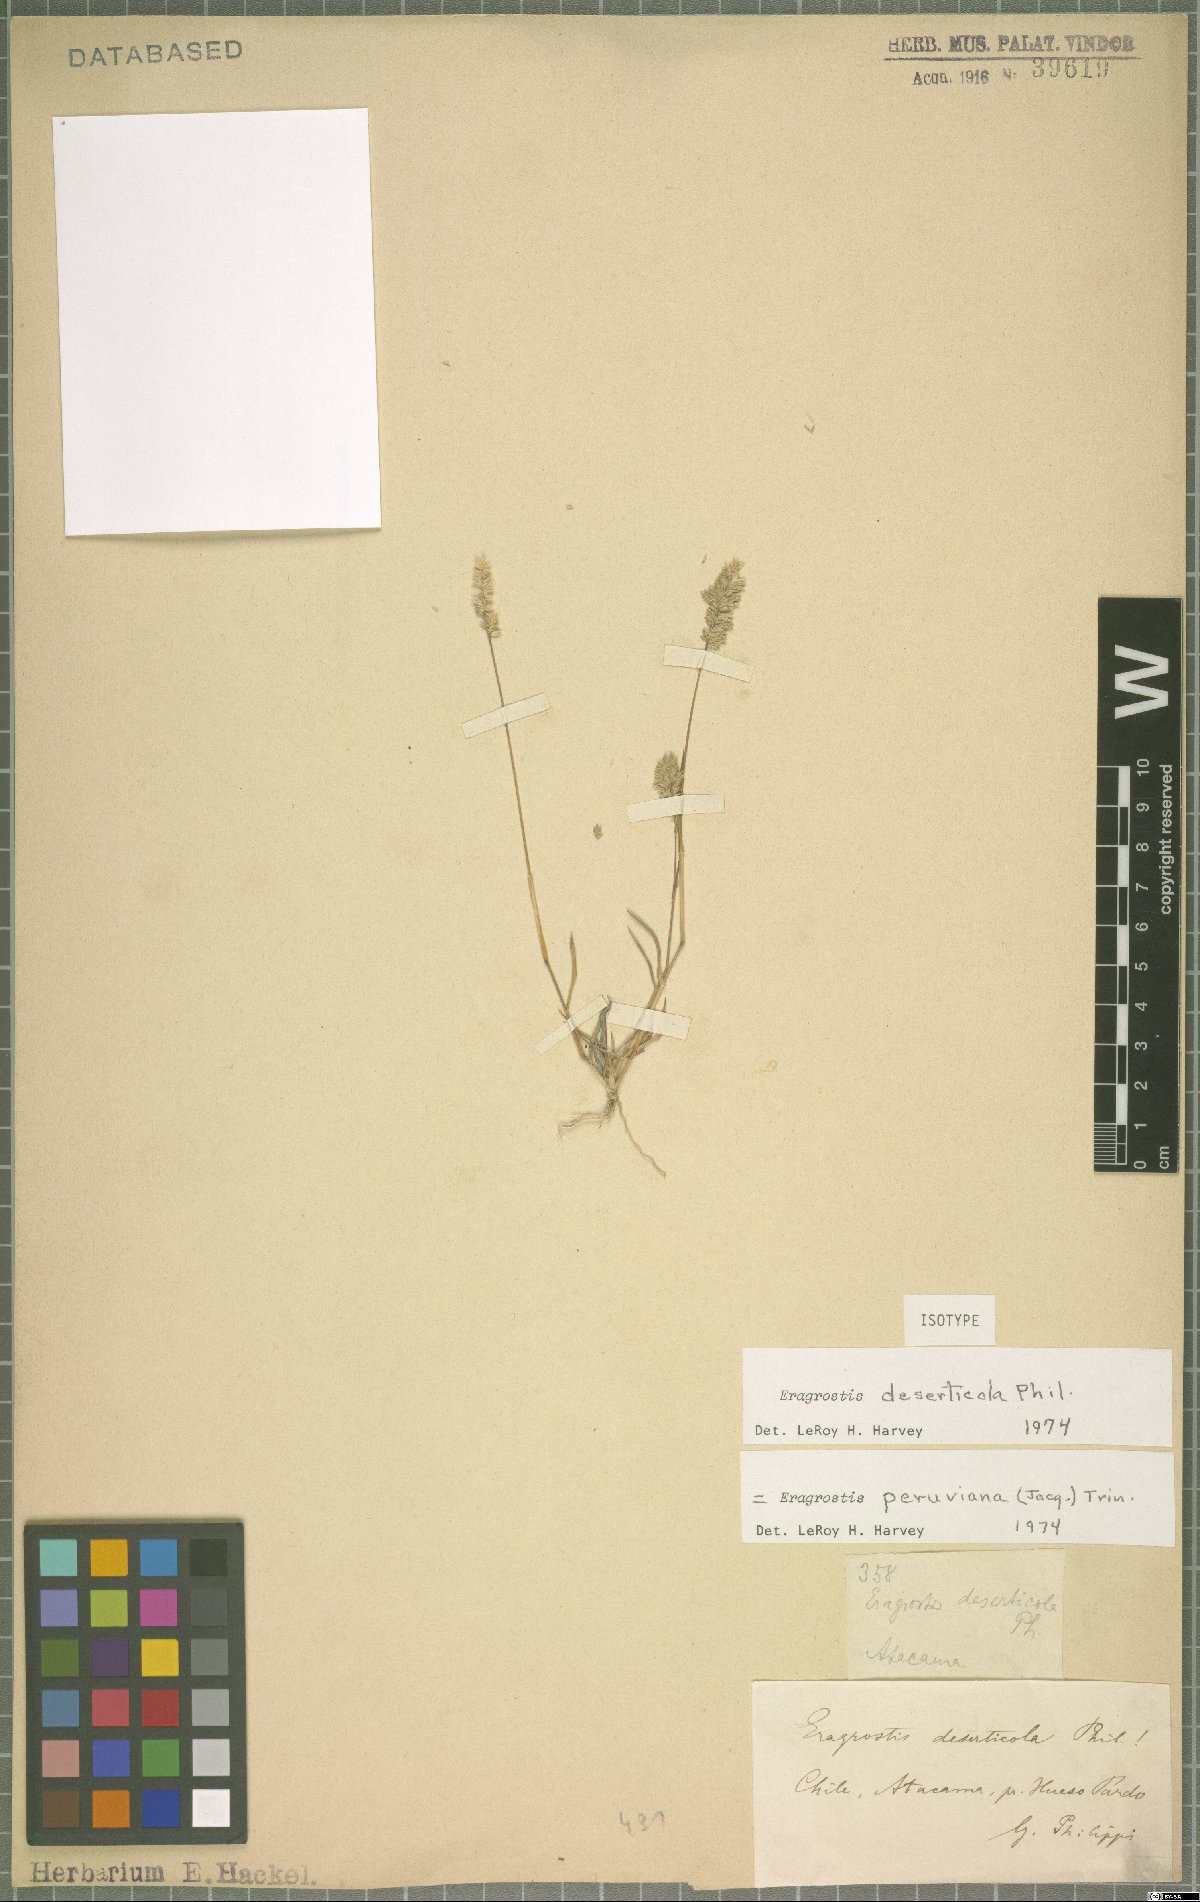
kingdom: Plantae
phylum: Tracheophyta
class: Liliopsida
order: Poales
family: Poaceae
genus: Eragrostis
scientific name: Eragrostis peruviana
